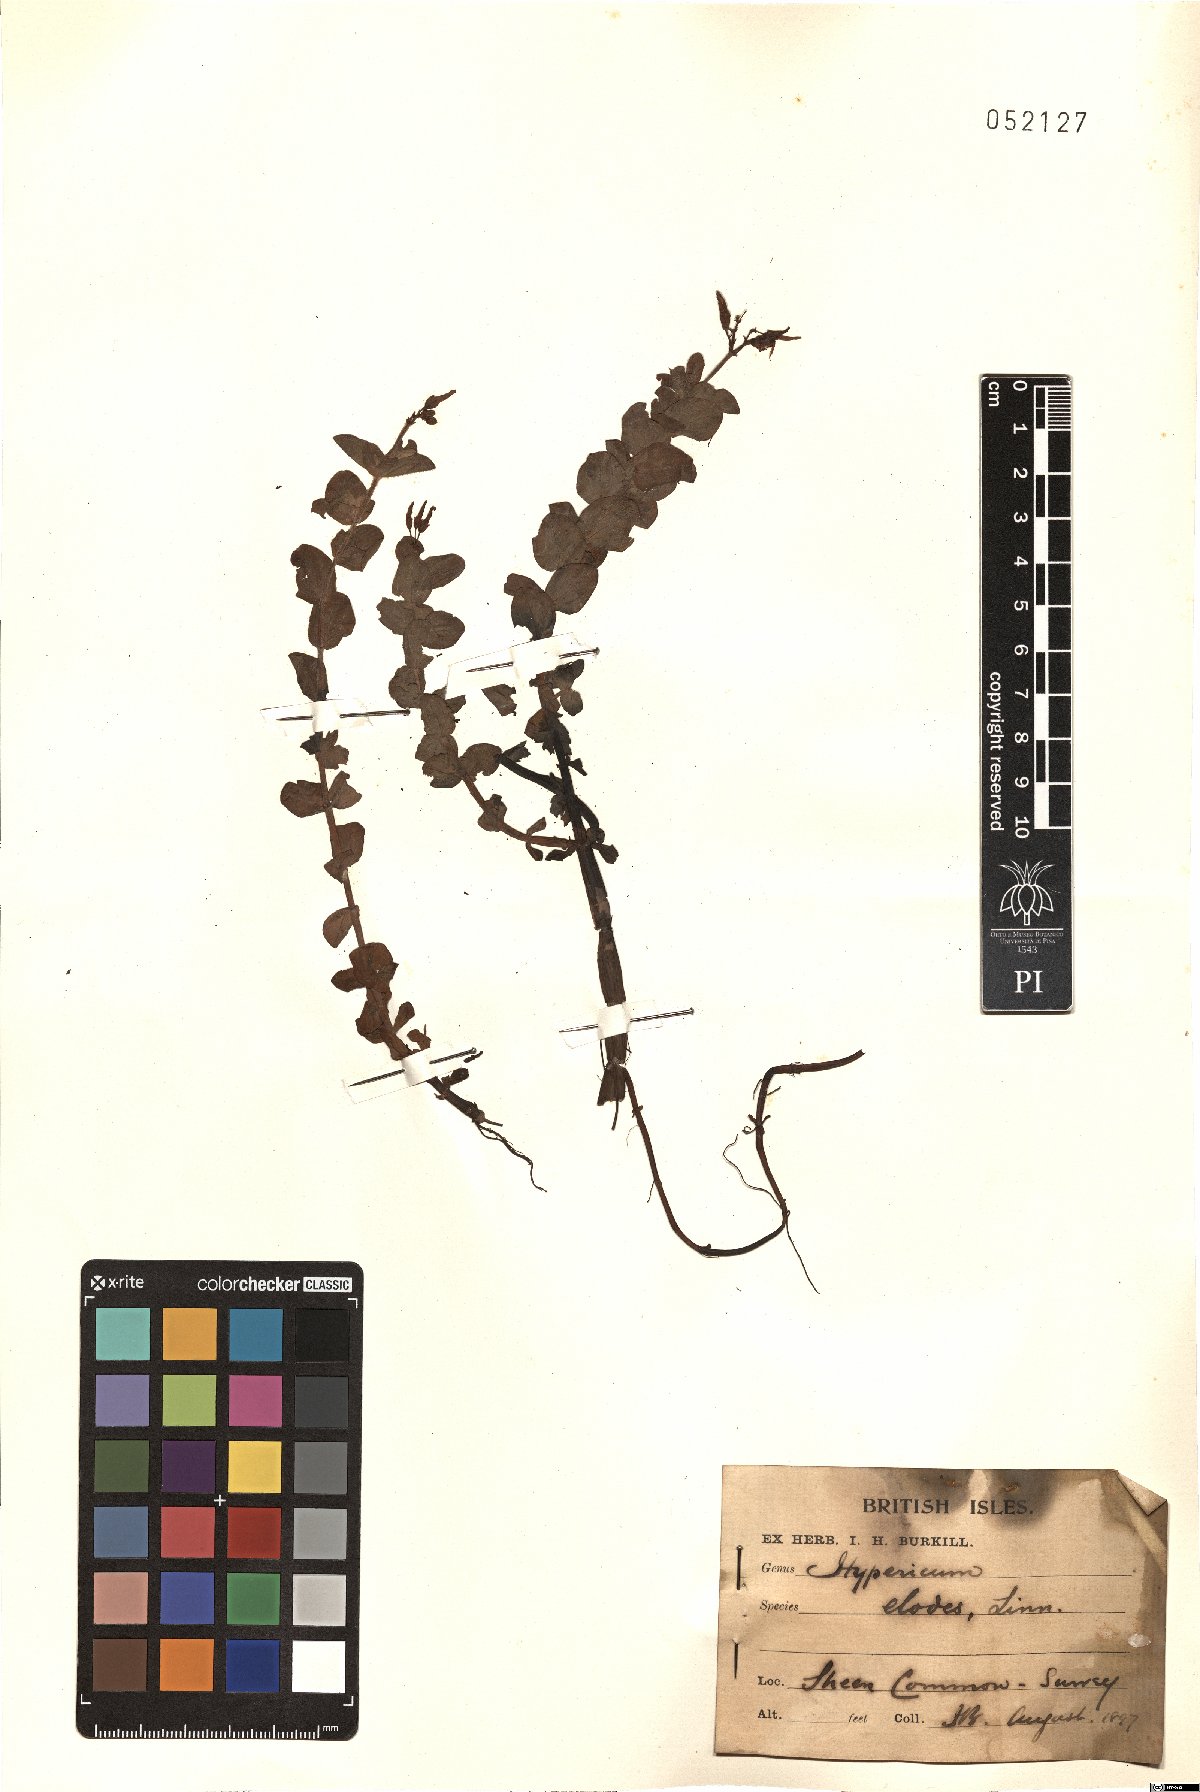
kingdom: Plantae
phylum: Tracheophyta
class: Magnoliopsida
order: Malpighiales
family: Hypericaceae
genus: Hypericum
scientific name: Hypericum elodes
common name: Marsh st. john's-wort
